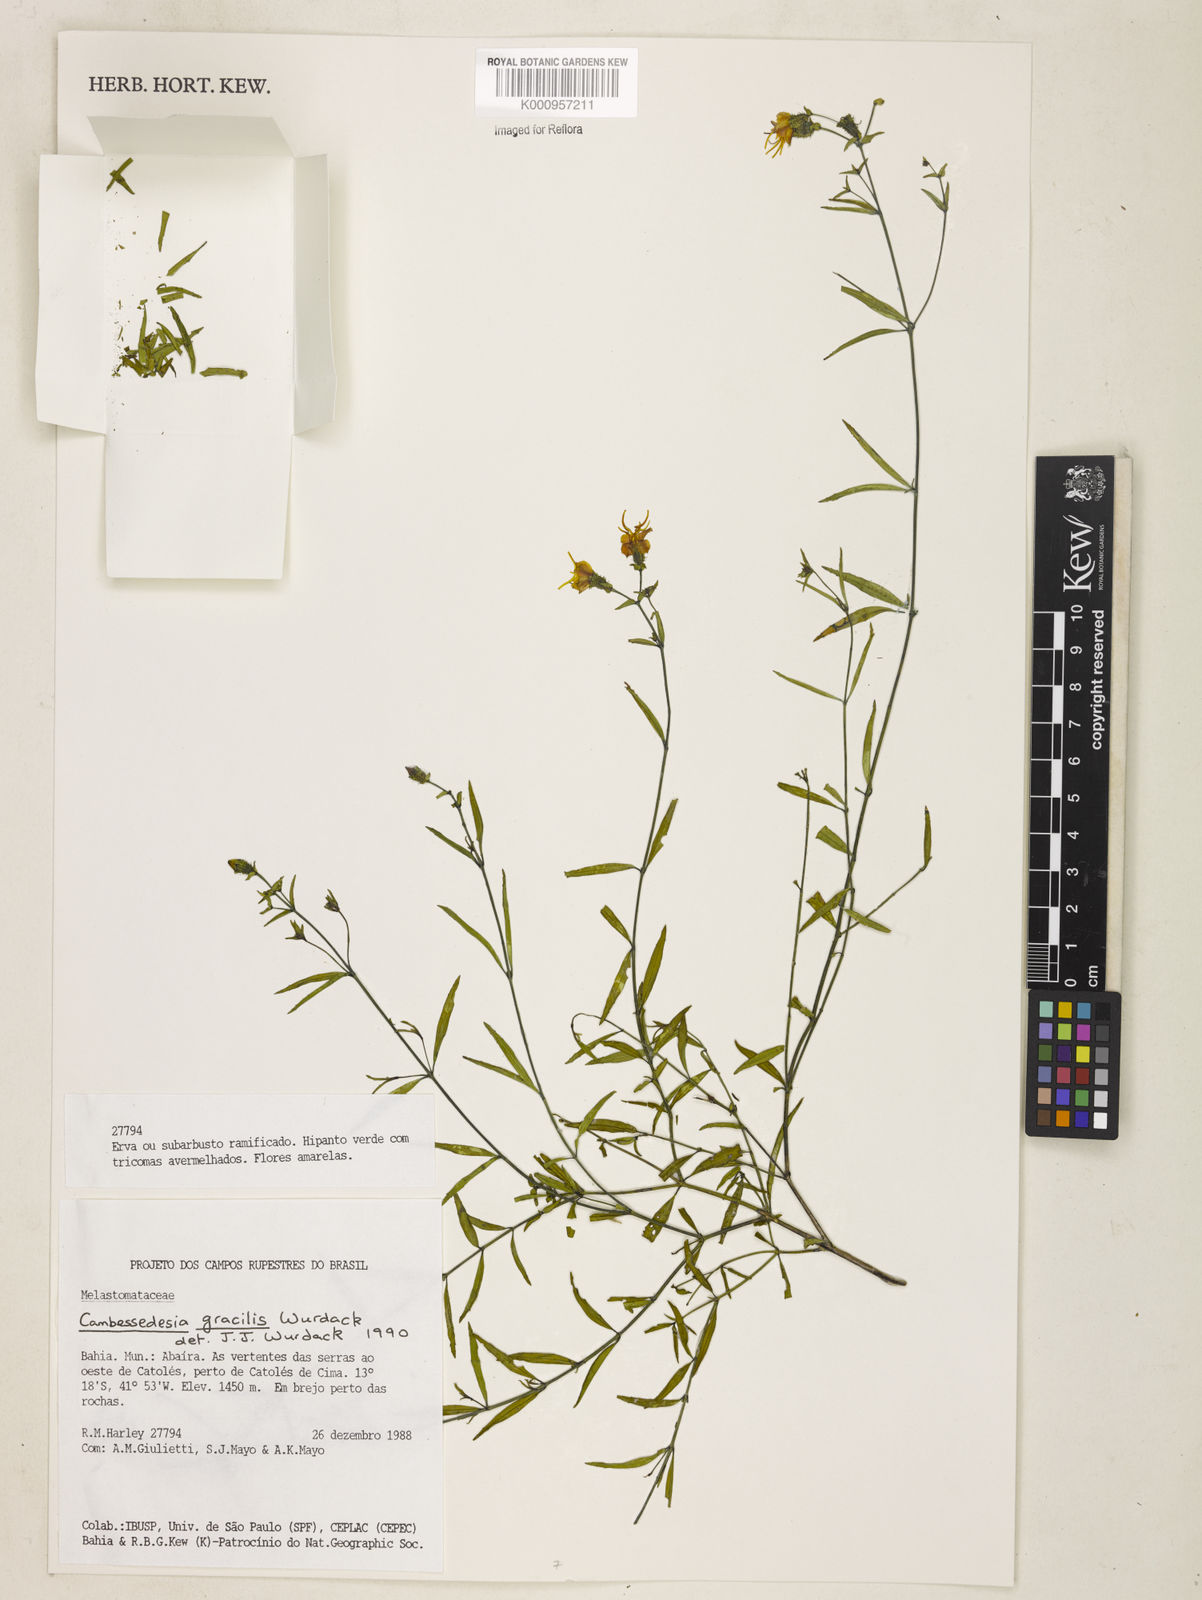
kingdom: Plantae
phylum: Tracheophyta
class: Magnoliopsida
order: Myrtales
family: Melastomataceae
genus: Cambessedesia
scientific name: Cambessedesia gracilis
